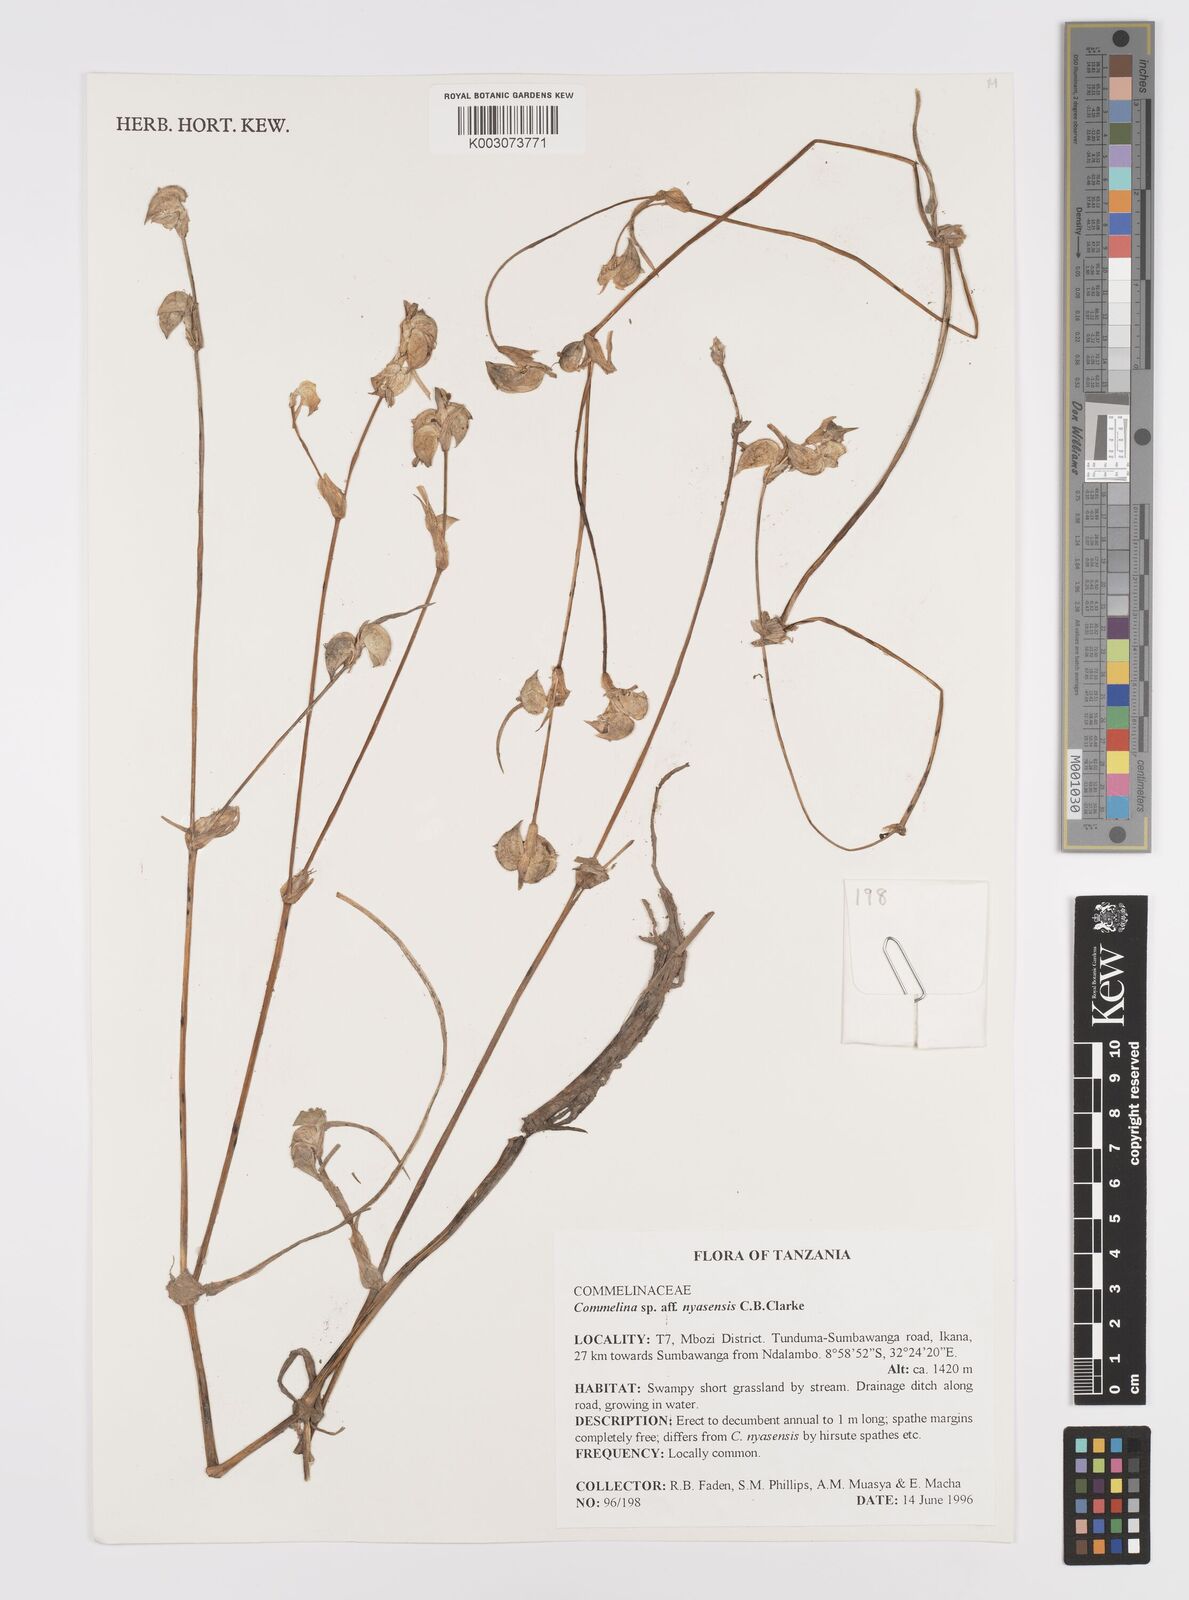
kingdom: Plantae
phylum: Tracheophyta
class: Liliopsida
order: Commelinales
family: Commelinaceae
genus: Commelina
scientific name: Commelina nyasensis
